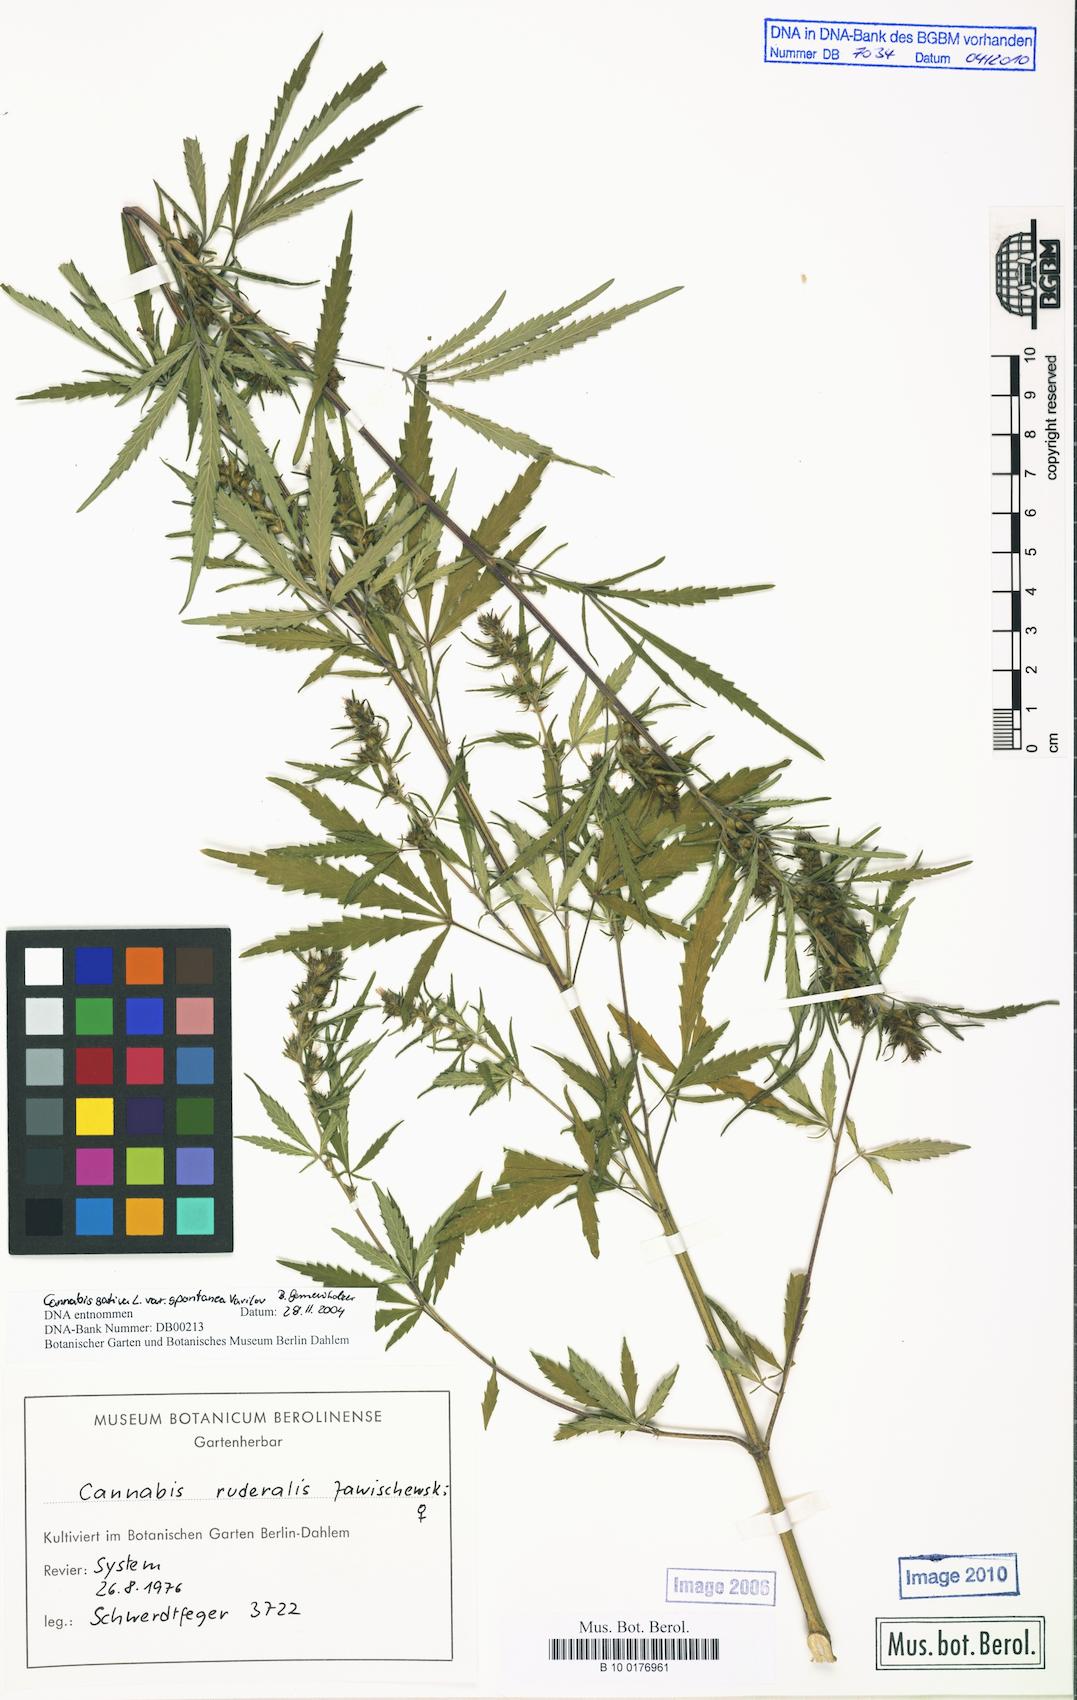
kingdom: Plantae
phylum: Tracheophyta
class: Magnoliopsida
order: Rosales
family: Cannabaceae
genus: Cannabis
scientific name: Cannabis sativa
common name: Hemp
